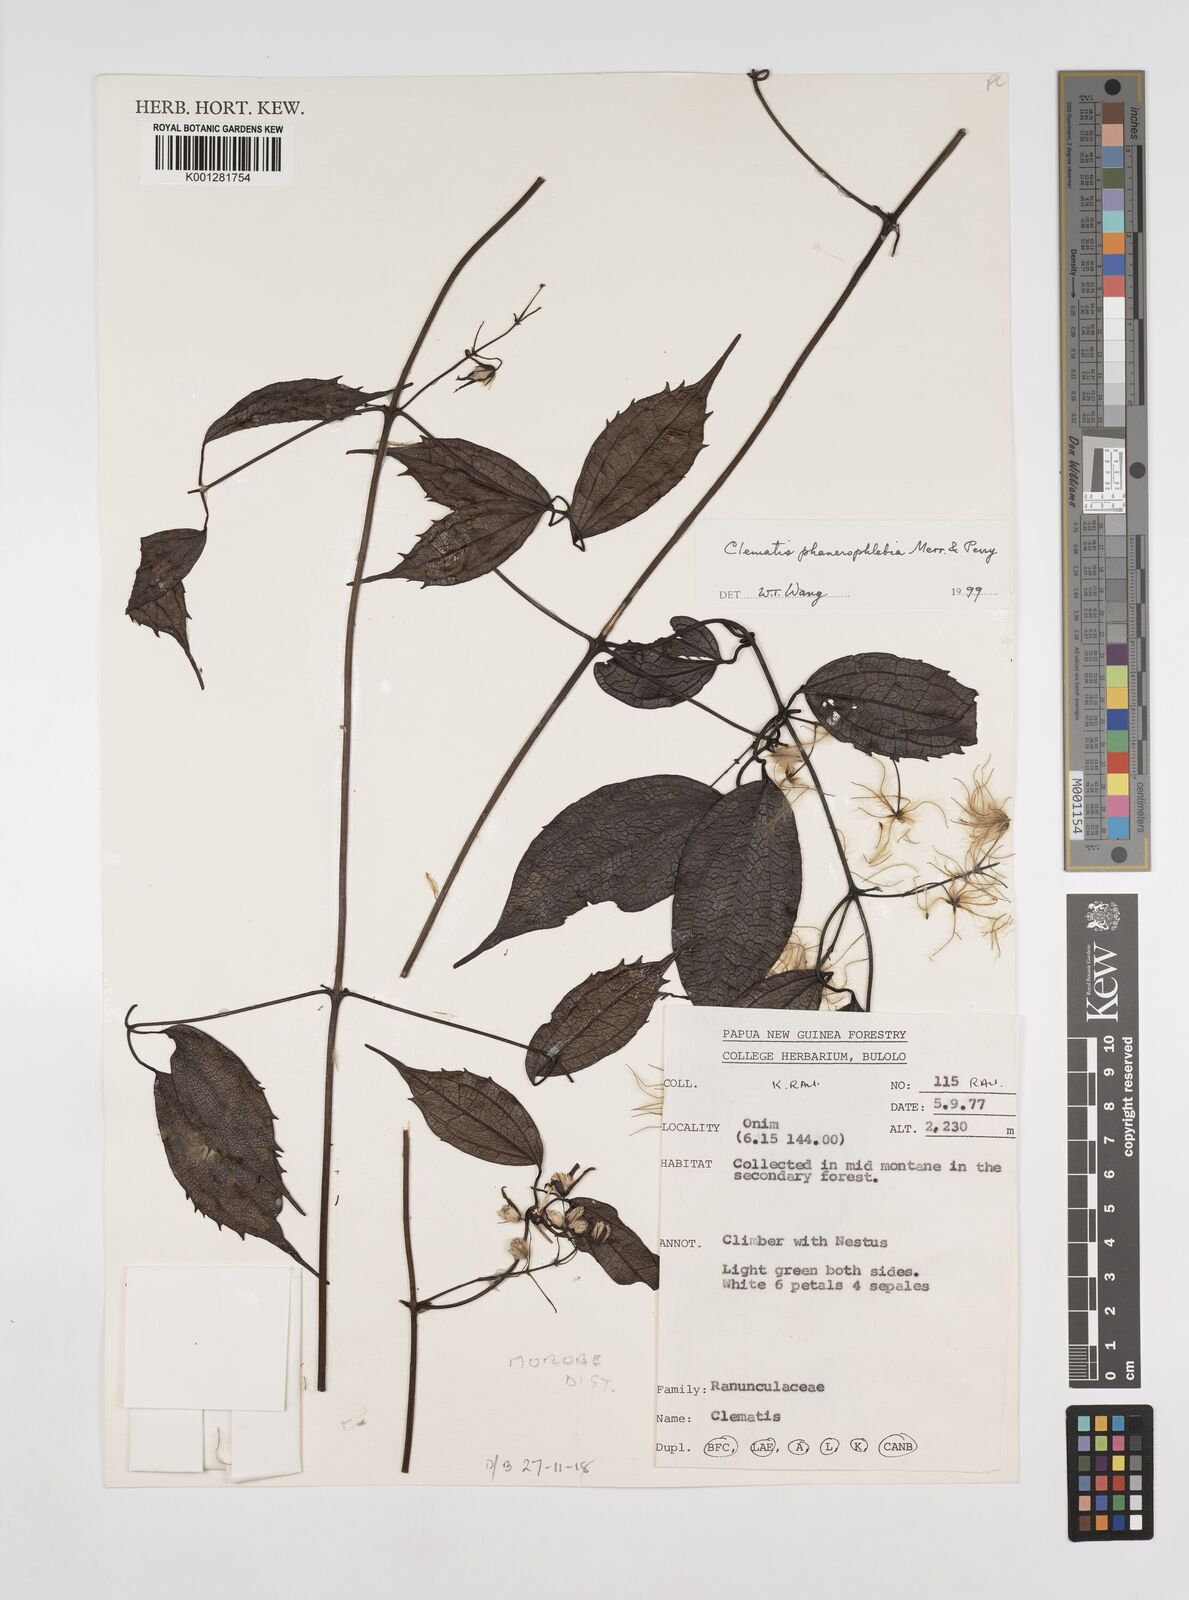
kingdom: Plantae
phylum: Tracheophyta
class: Magnoliopsida
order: Ranunculales
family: Ranunculaceae
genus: Clematis
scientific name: Clematis phanerophlebia
